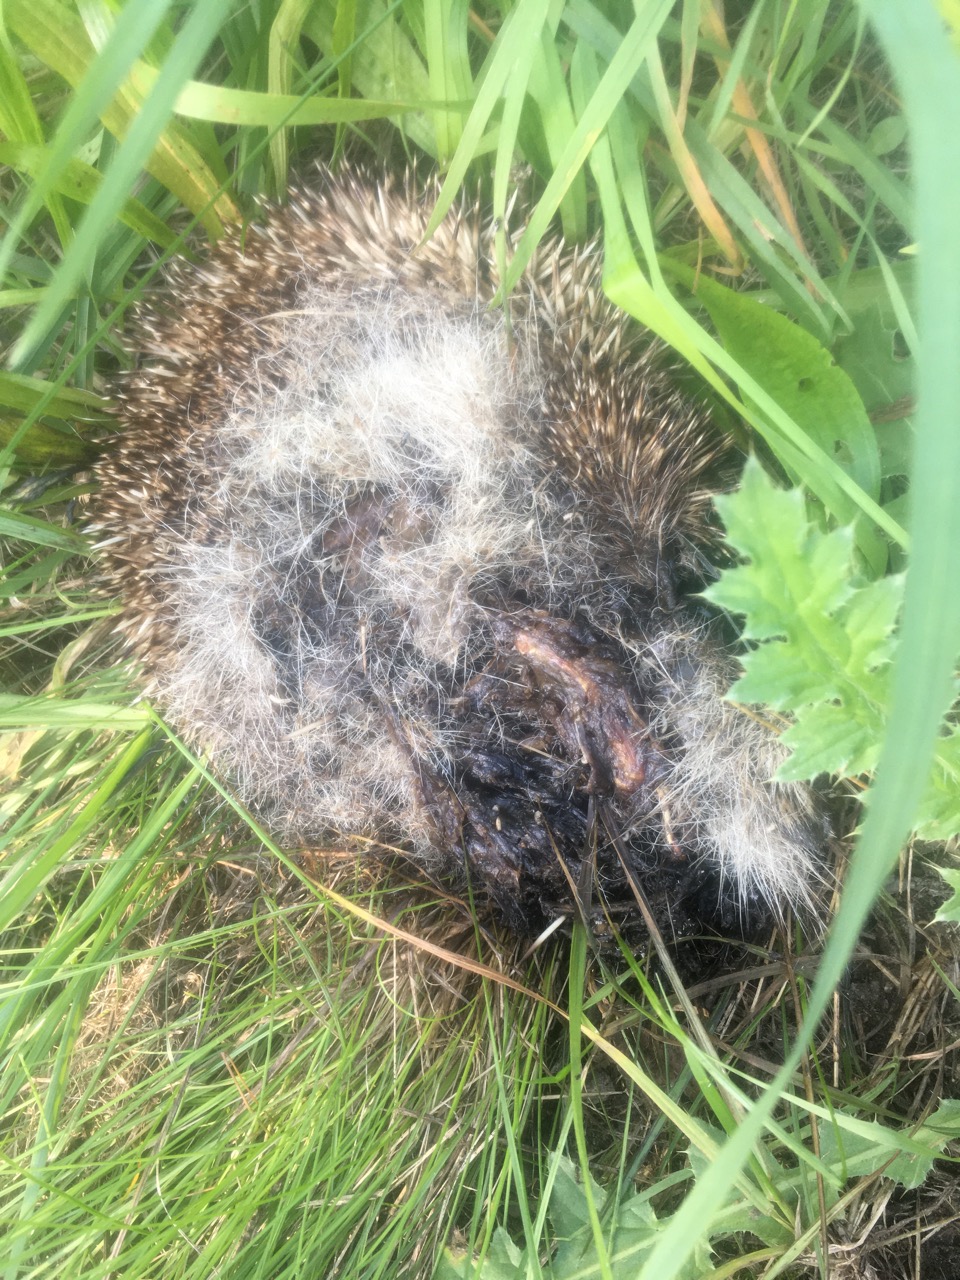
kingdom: Animalia
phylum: Chordata
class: Mammalia
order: Erinaceomorpha
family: Erinaceidae
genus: Erinaceus
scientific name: Erinaceus
